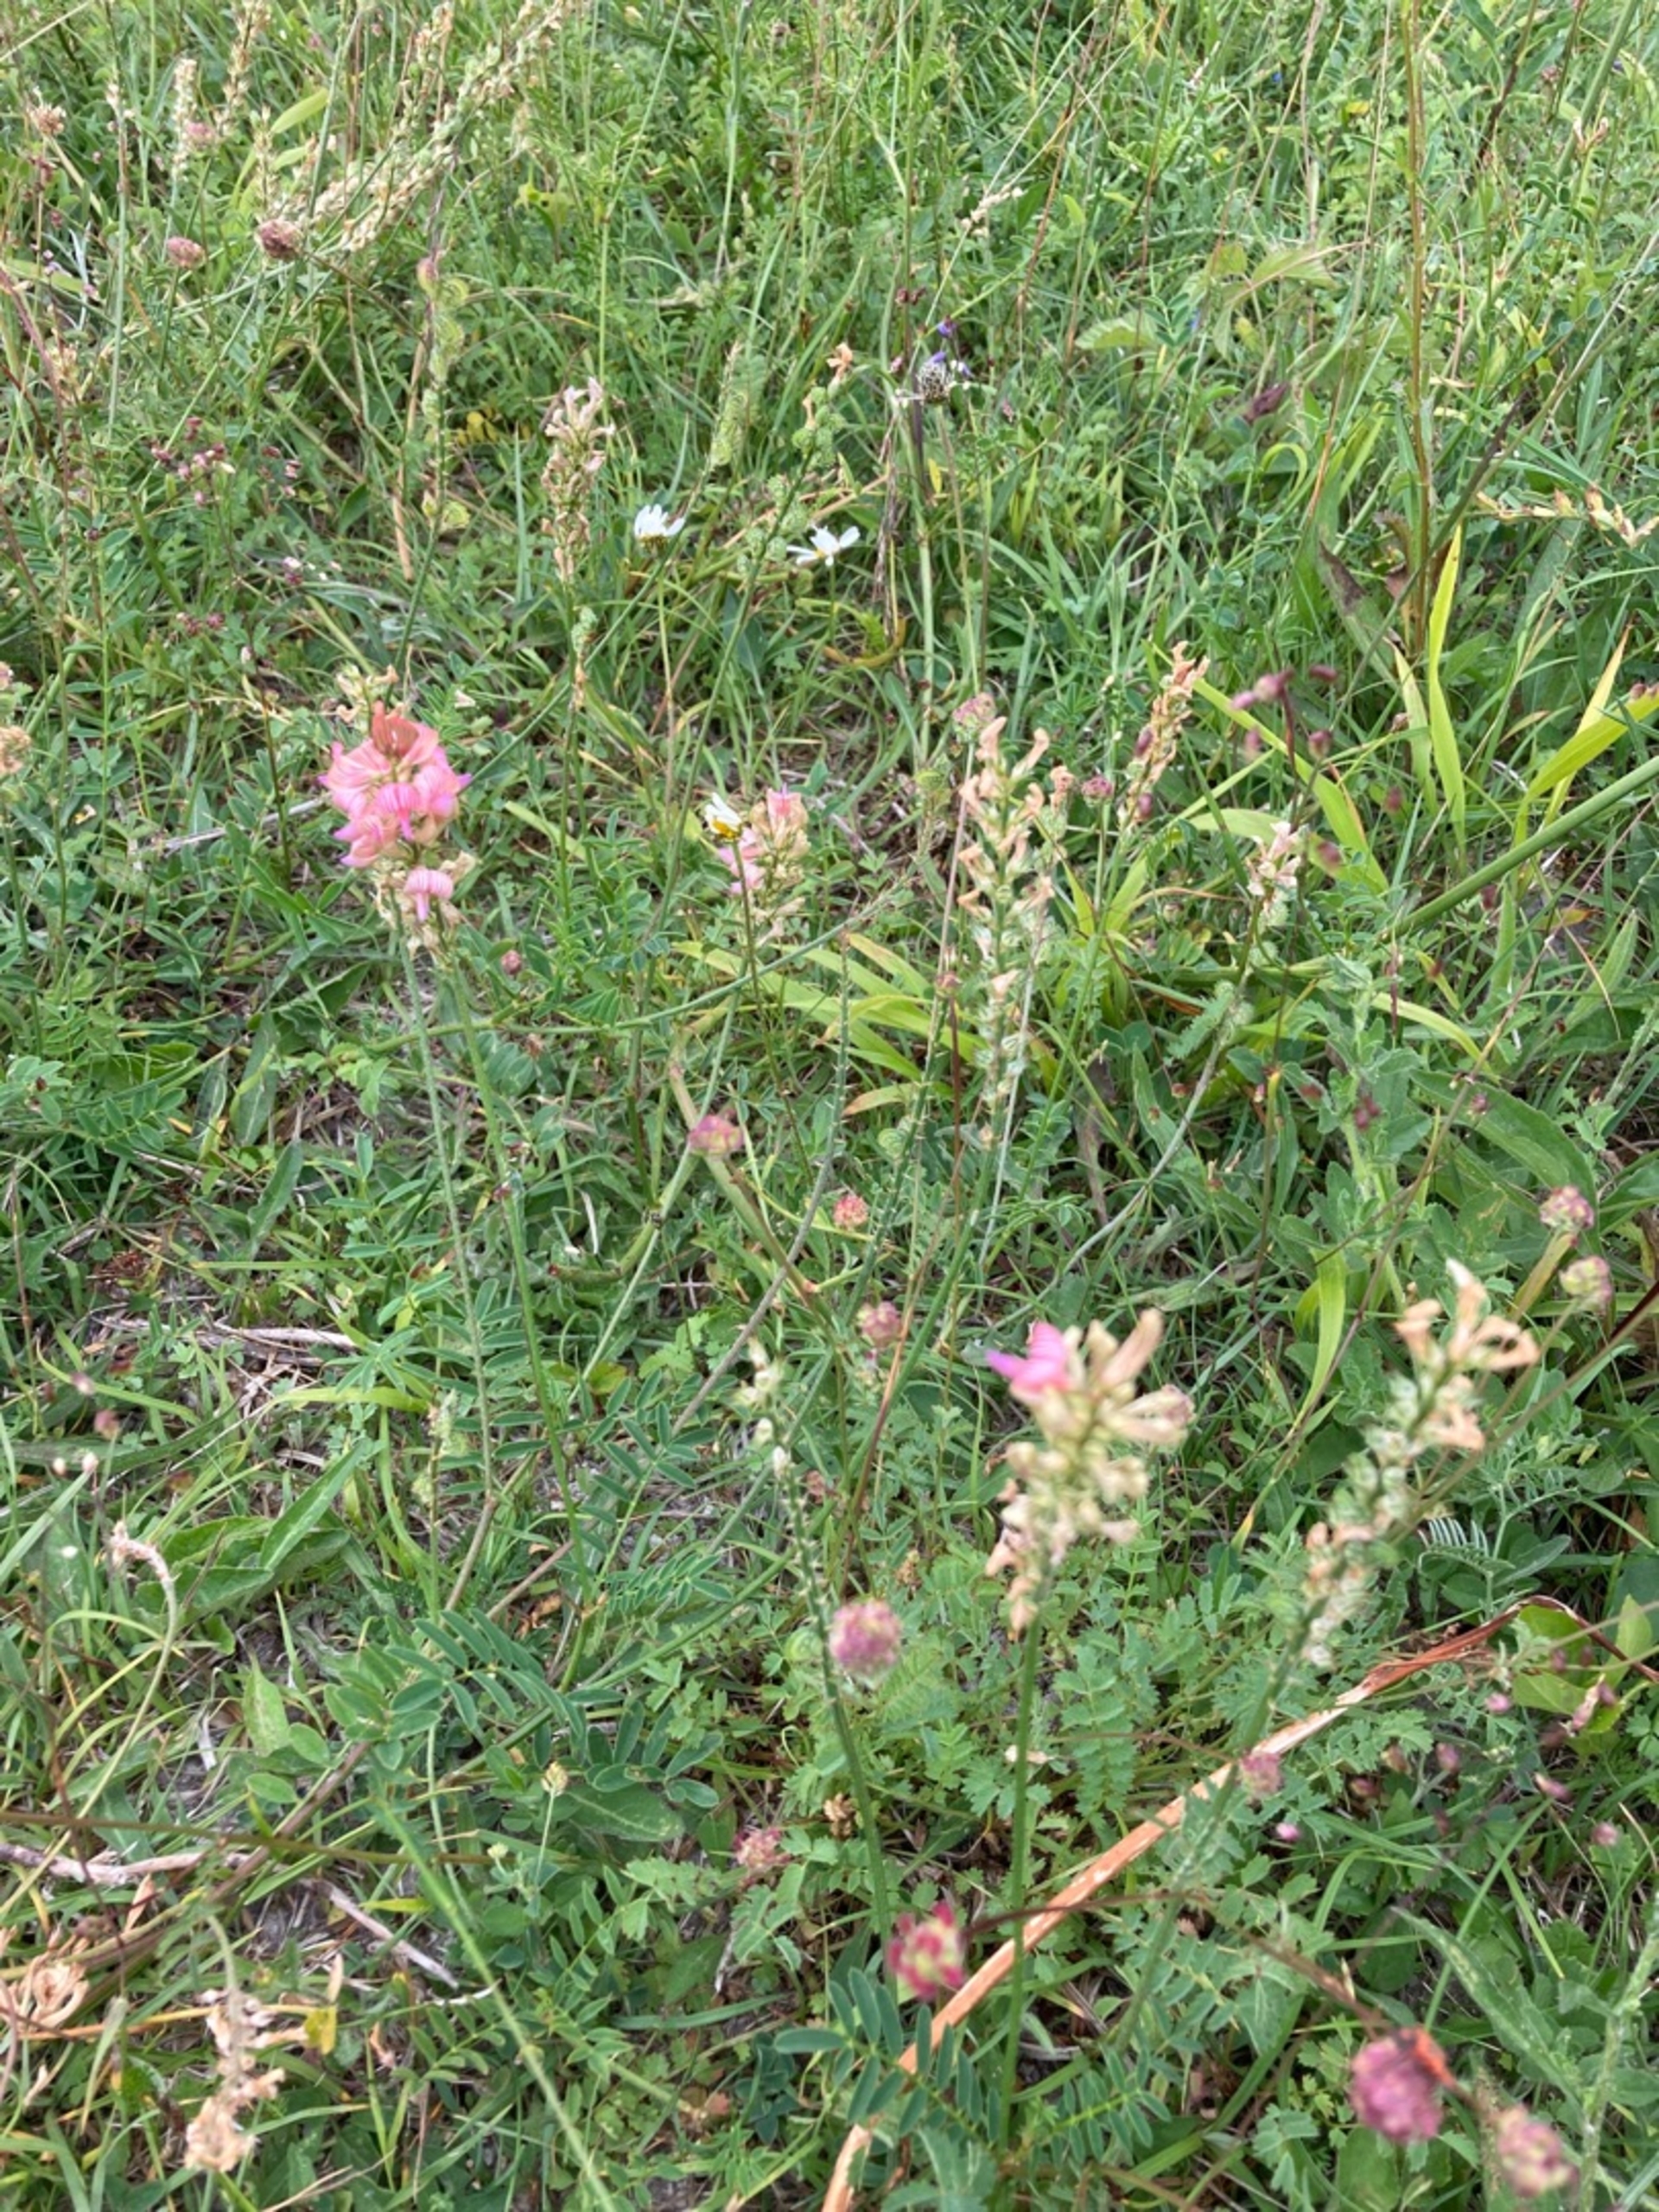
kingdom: Plantae
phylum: Tracheophyta
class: Magnoliopsida
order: Fabales
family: Fabaceae
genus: Onobrychis
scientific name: Onobrychis viciifolia
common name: Esparsette
